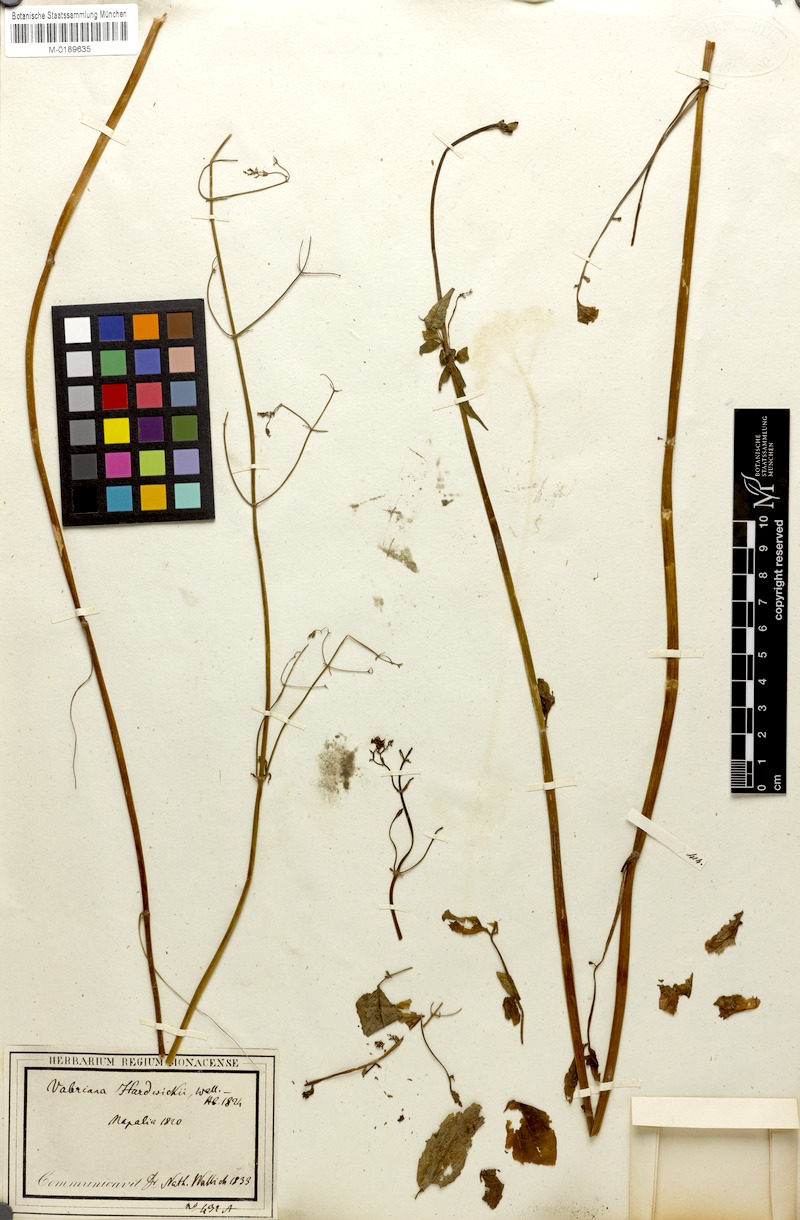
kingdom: Plantae
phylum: Tracheophyta
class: Magnoliopsida
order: Dipsacales
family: Caprifoliaceae
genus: Valeriana
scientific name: Valeriana hardwickei
